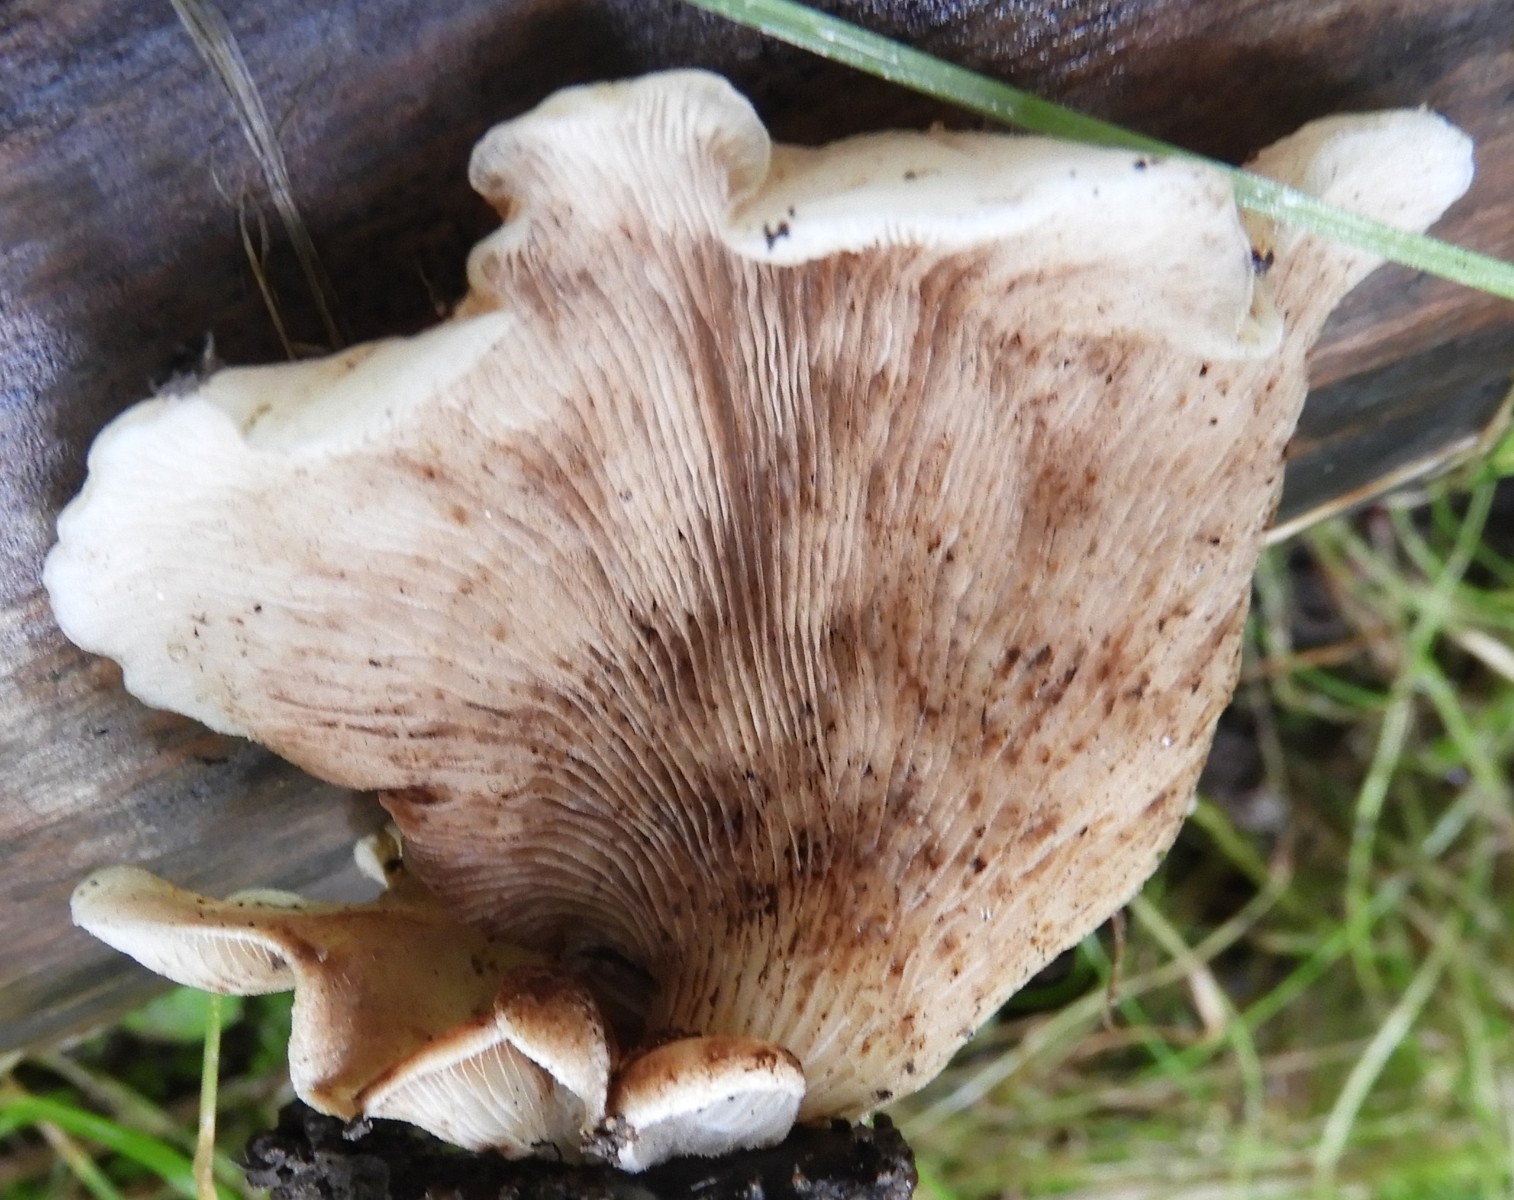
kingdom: Fungi
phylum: Basidiomycota
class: Agaricomycetes
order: Agaricales
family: Crepidotaceae
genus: Crepidotus
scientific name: Crepidotus mollis
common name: blød muslingesvamp
